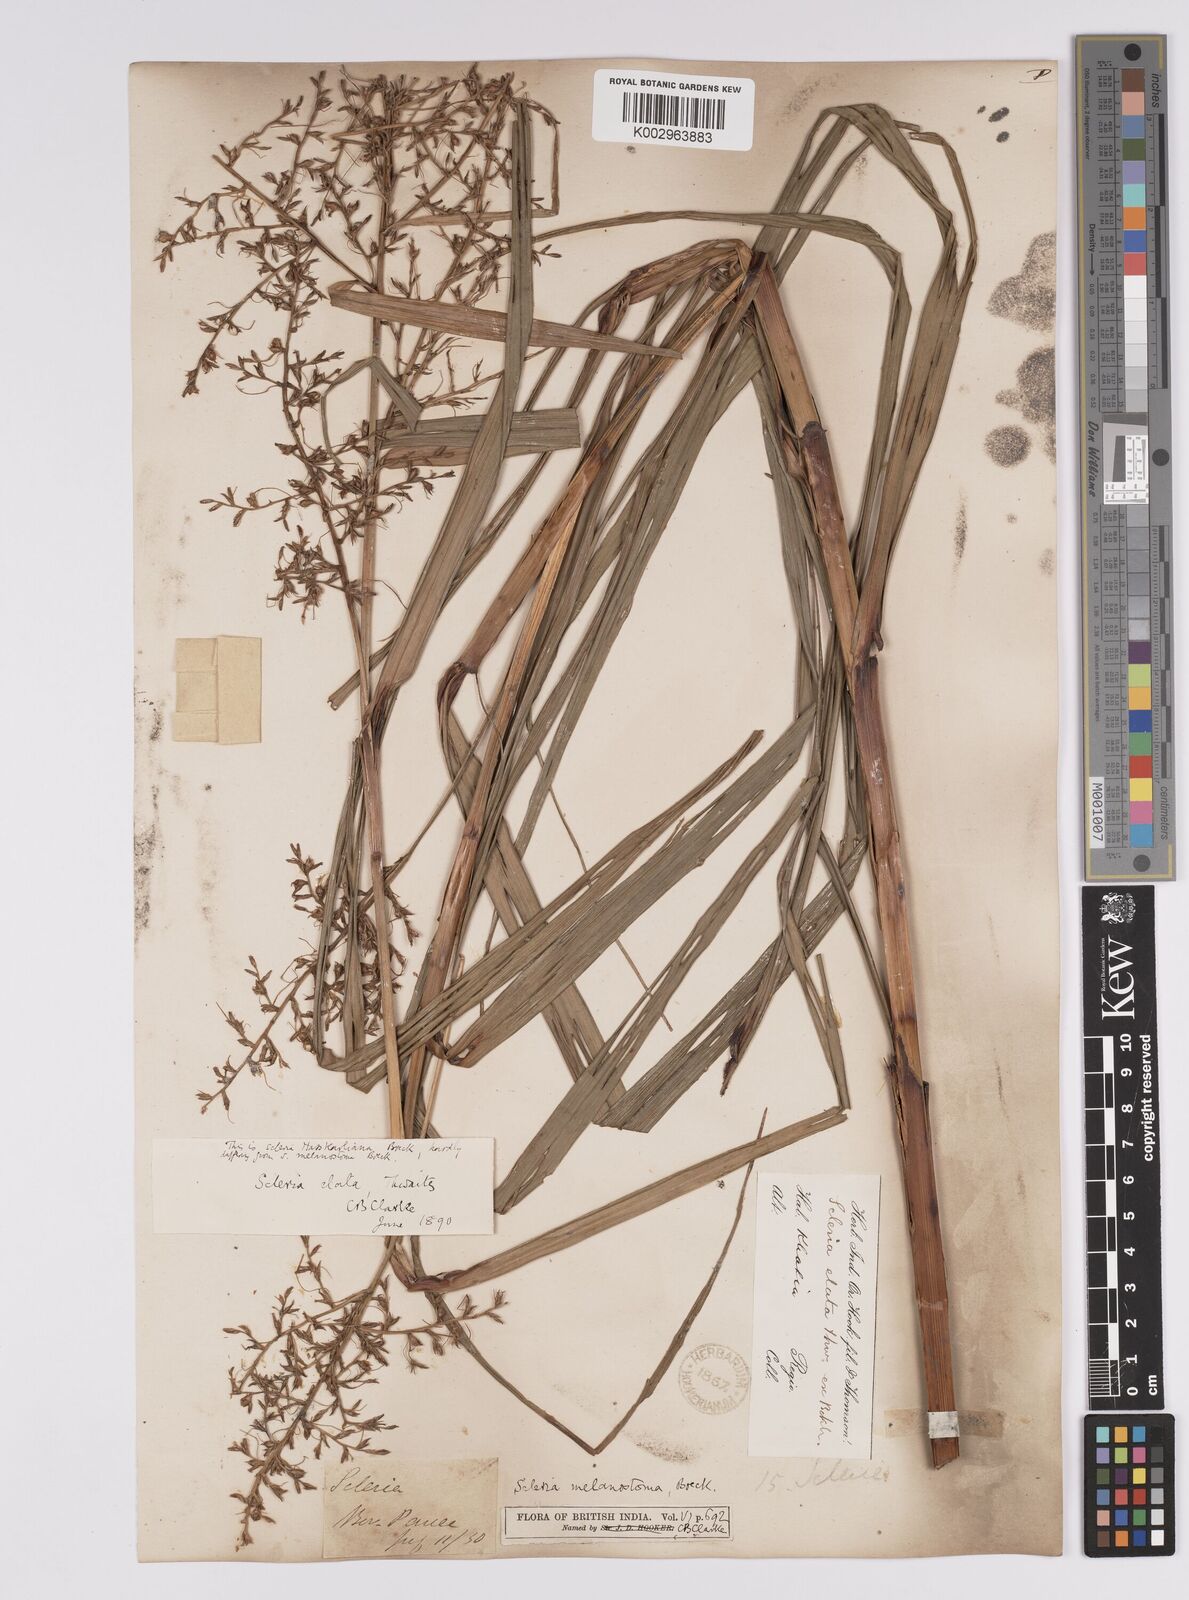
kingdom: Plantae
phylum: Tracheophyta
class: Liliopsida
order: Poales
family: Cyperaceae
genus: Scleria
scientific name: Scleria terrestris
